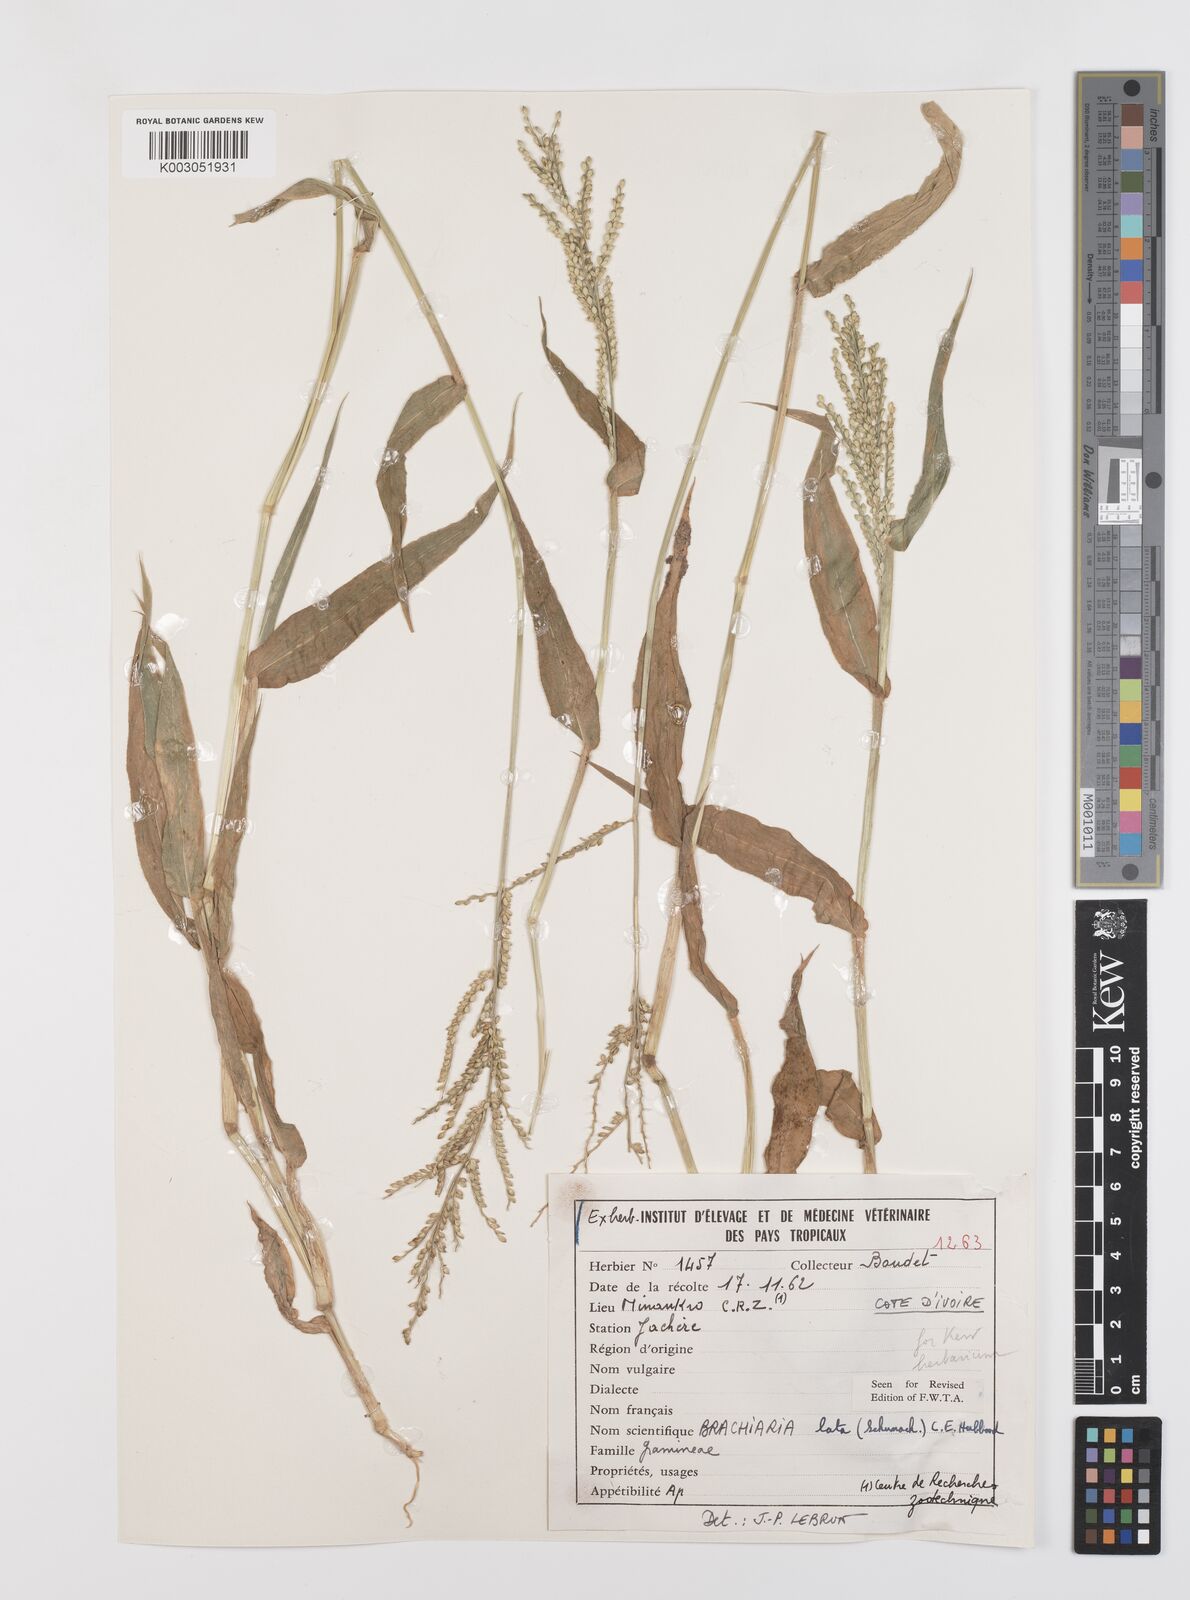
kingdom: Plantae
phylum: Tracheophyta
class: Liliopsida
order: Poales
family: Poaceae
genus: Urochloa
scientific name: Urochloa lata
